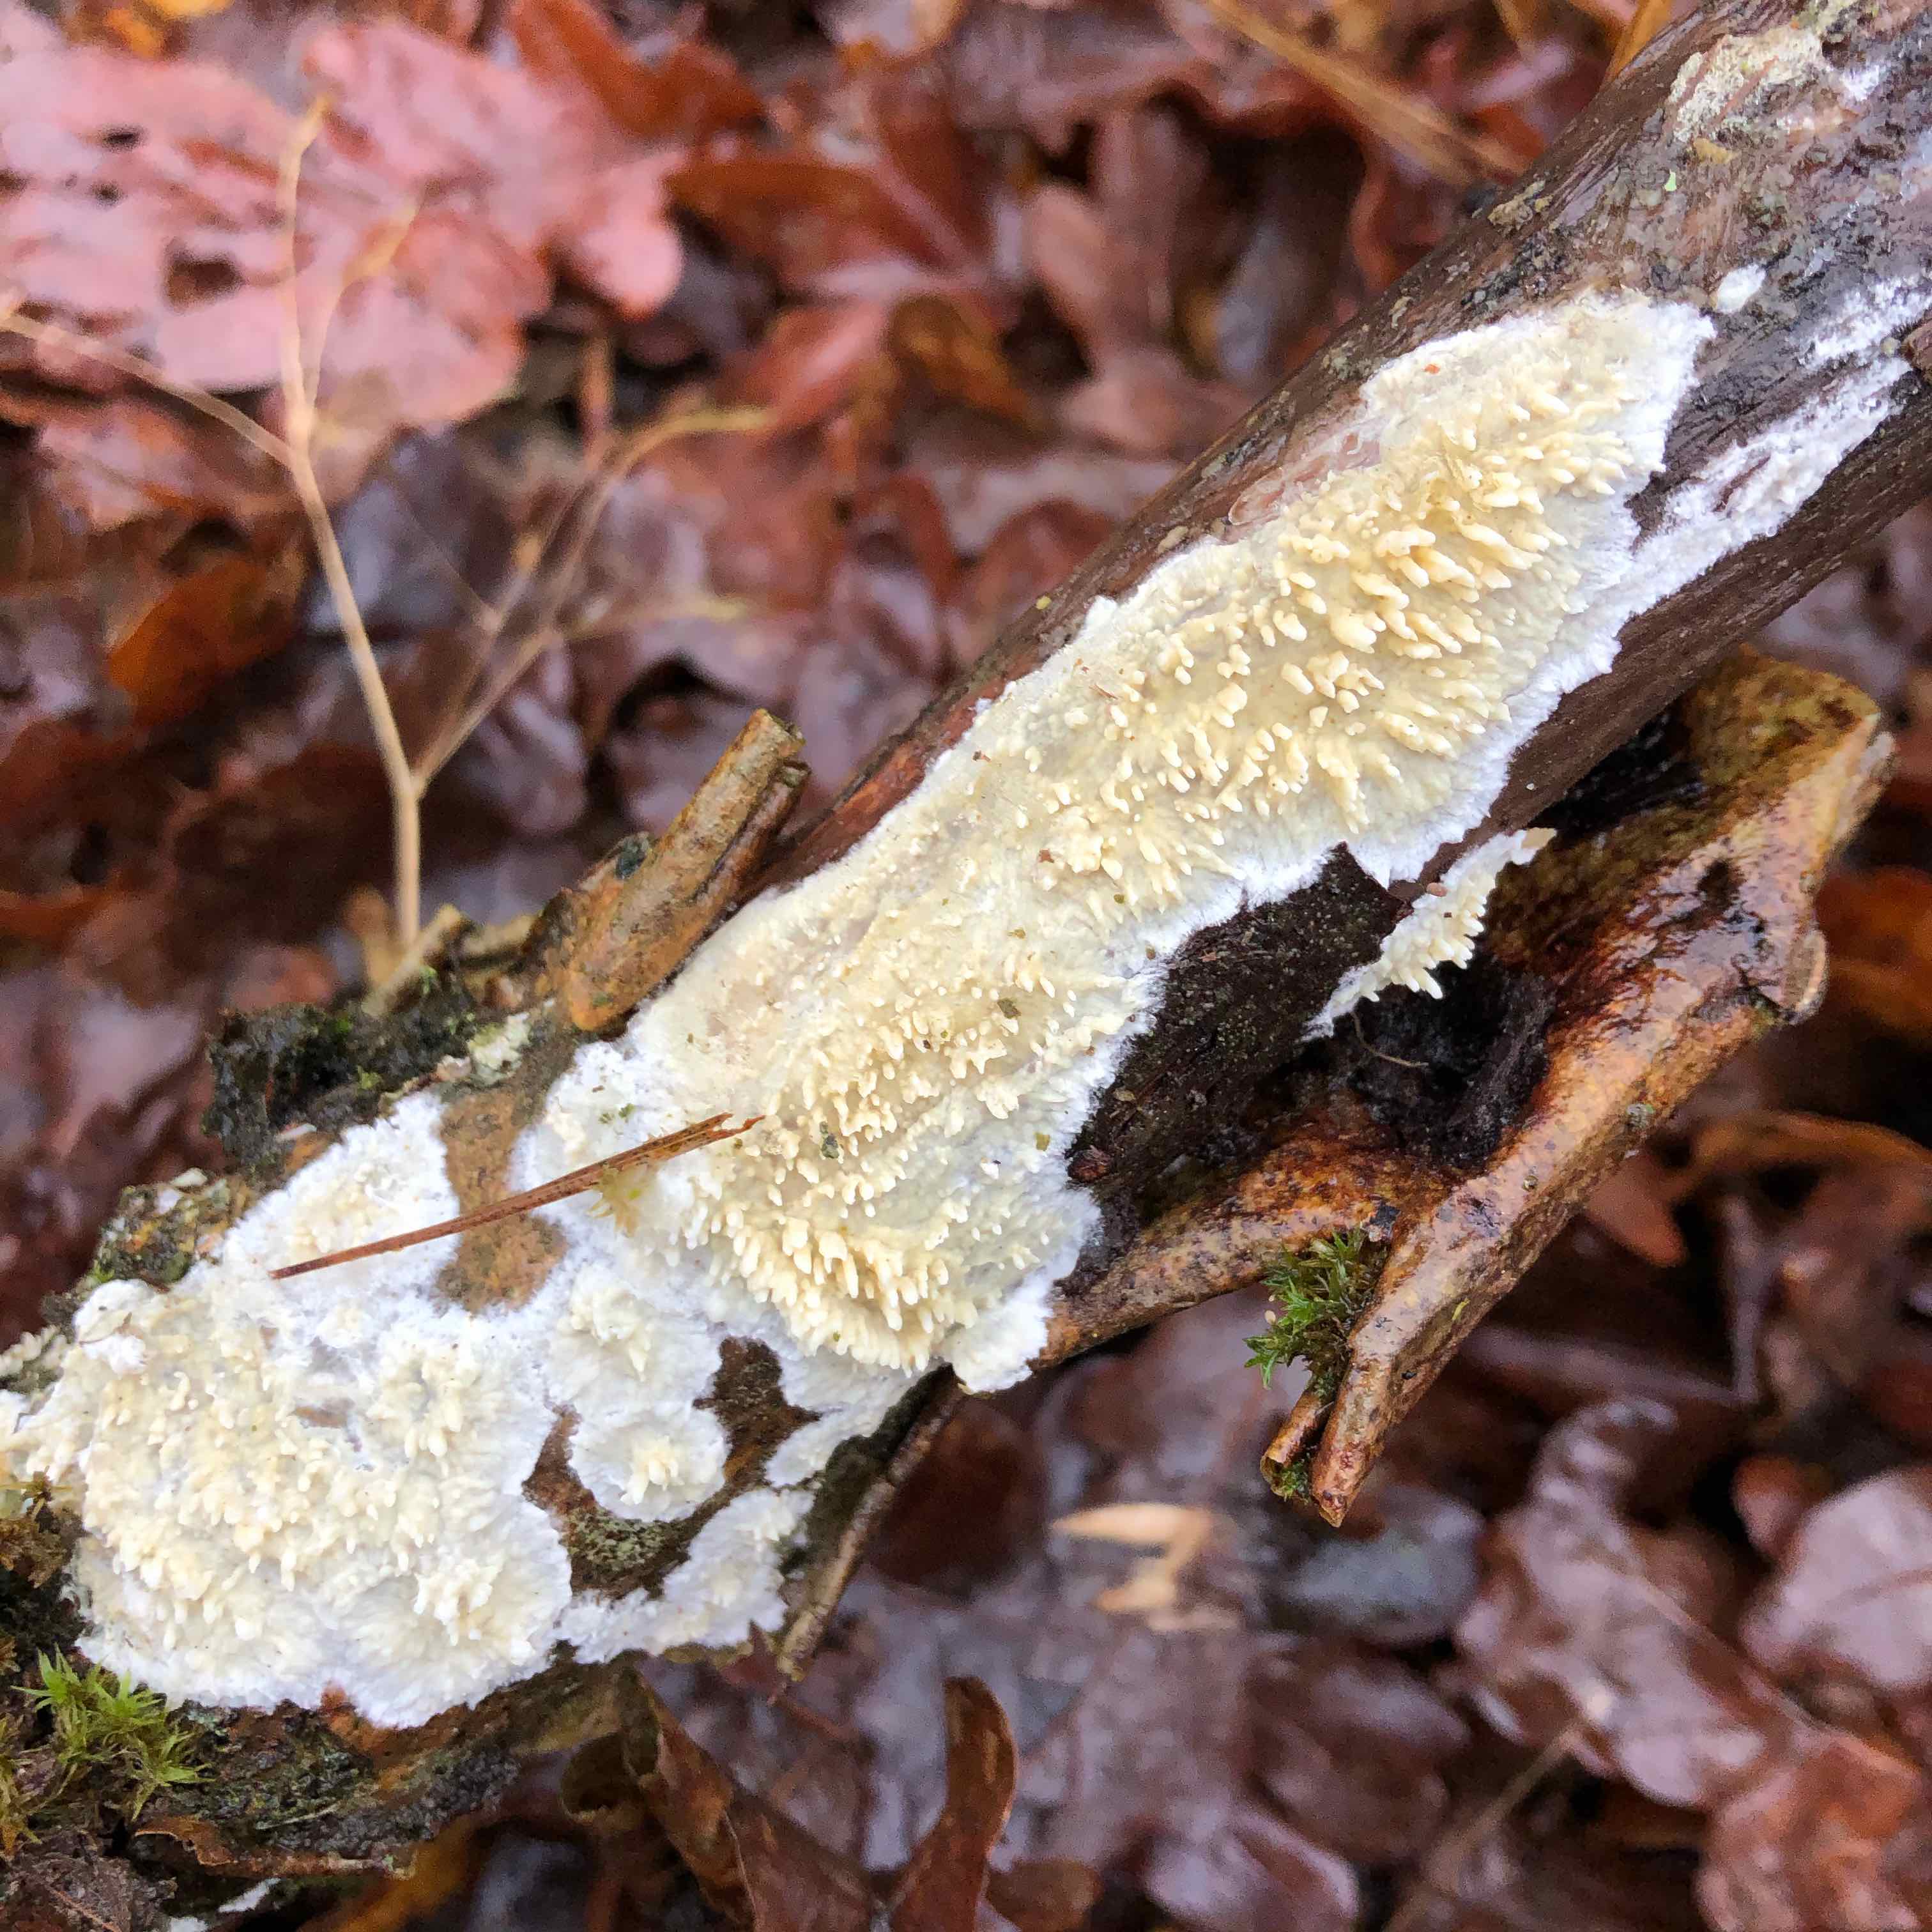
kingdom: Fungi
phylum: Basidiomycota
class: Agaricomycetes
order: Hymenochaetales
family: Schizoporaceae
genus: Xylodon
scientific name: Xylodon radula
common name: grovtandet kalkskind
